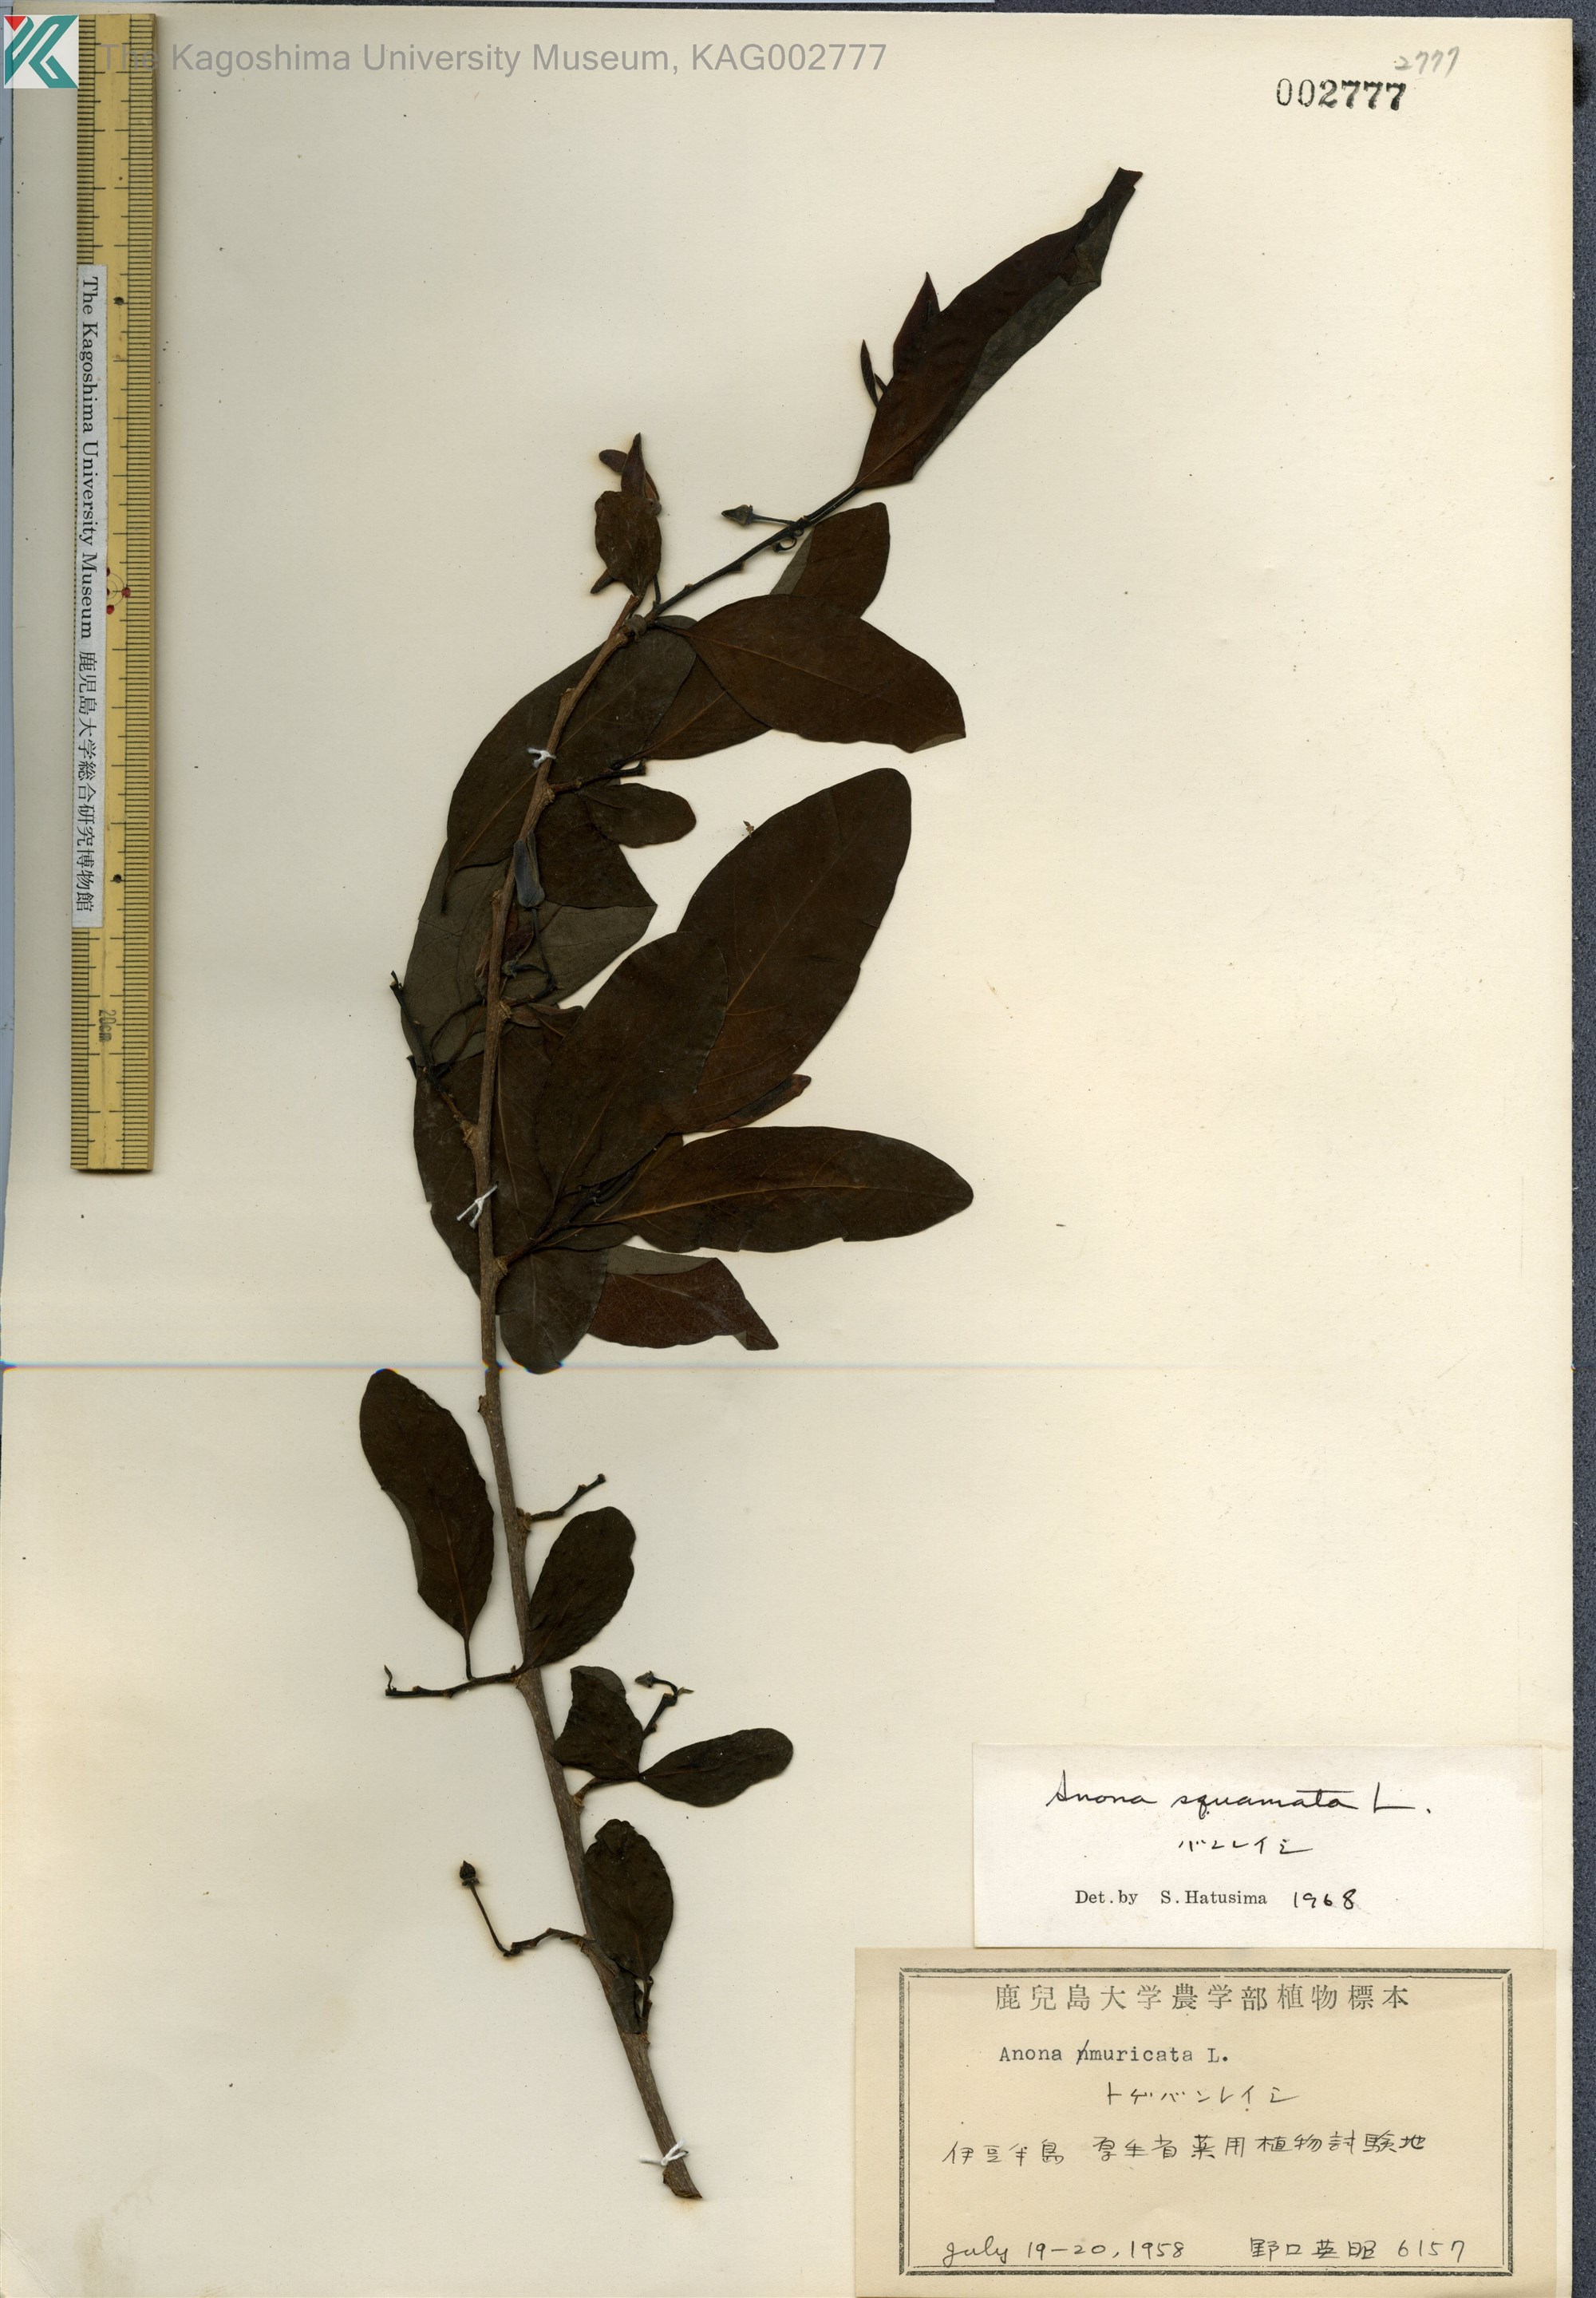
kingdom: Plantae
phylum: Tracheophyta
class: Magnoliopsida
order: Magnoliales
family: Annonaceae
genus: Annona
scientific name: Annona squamosa
